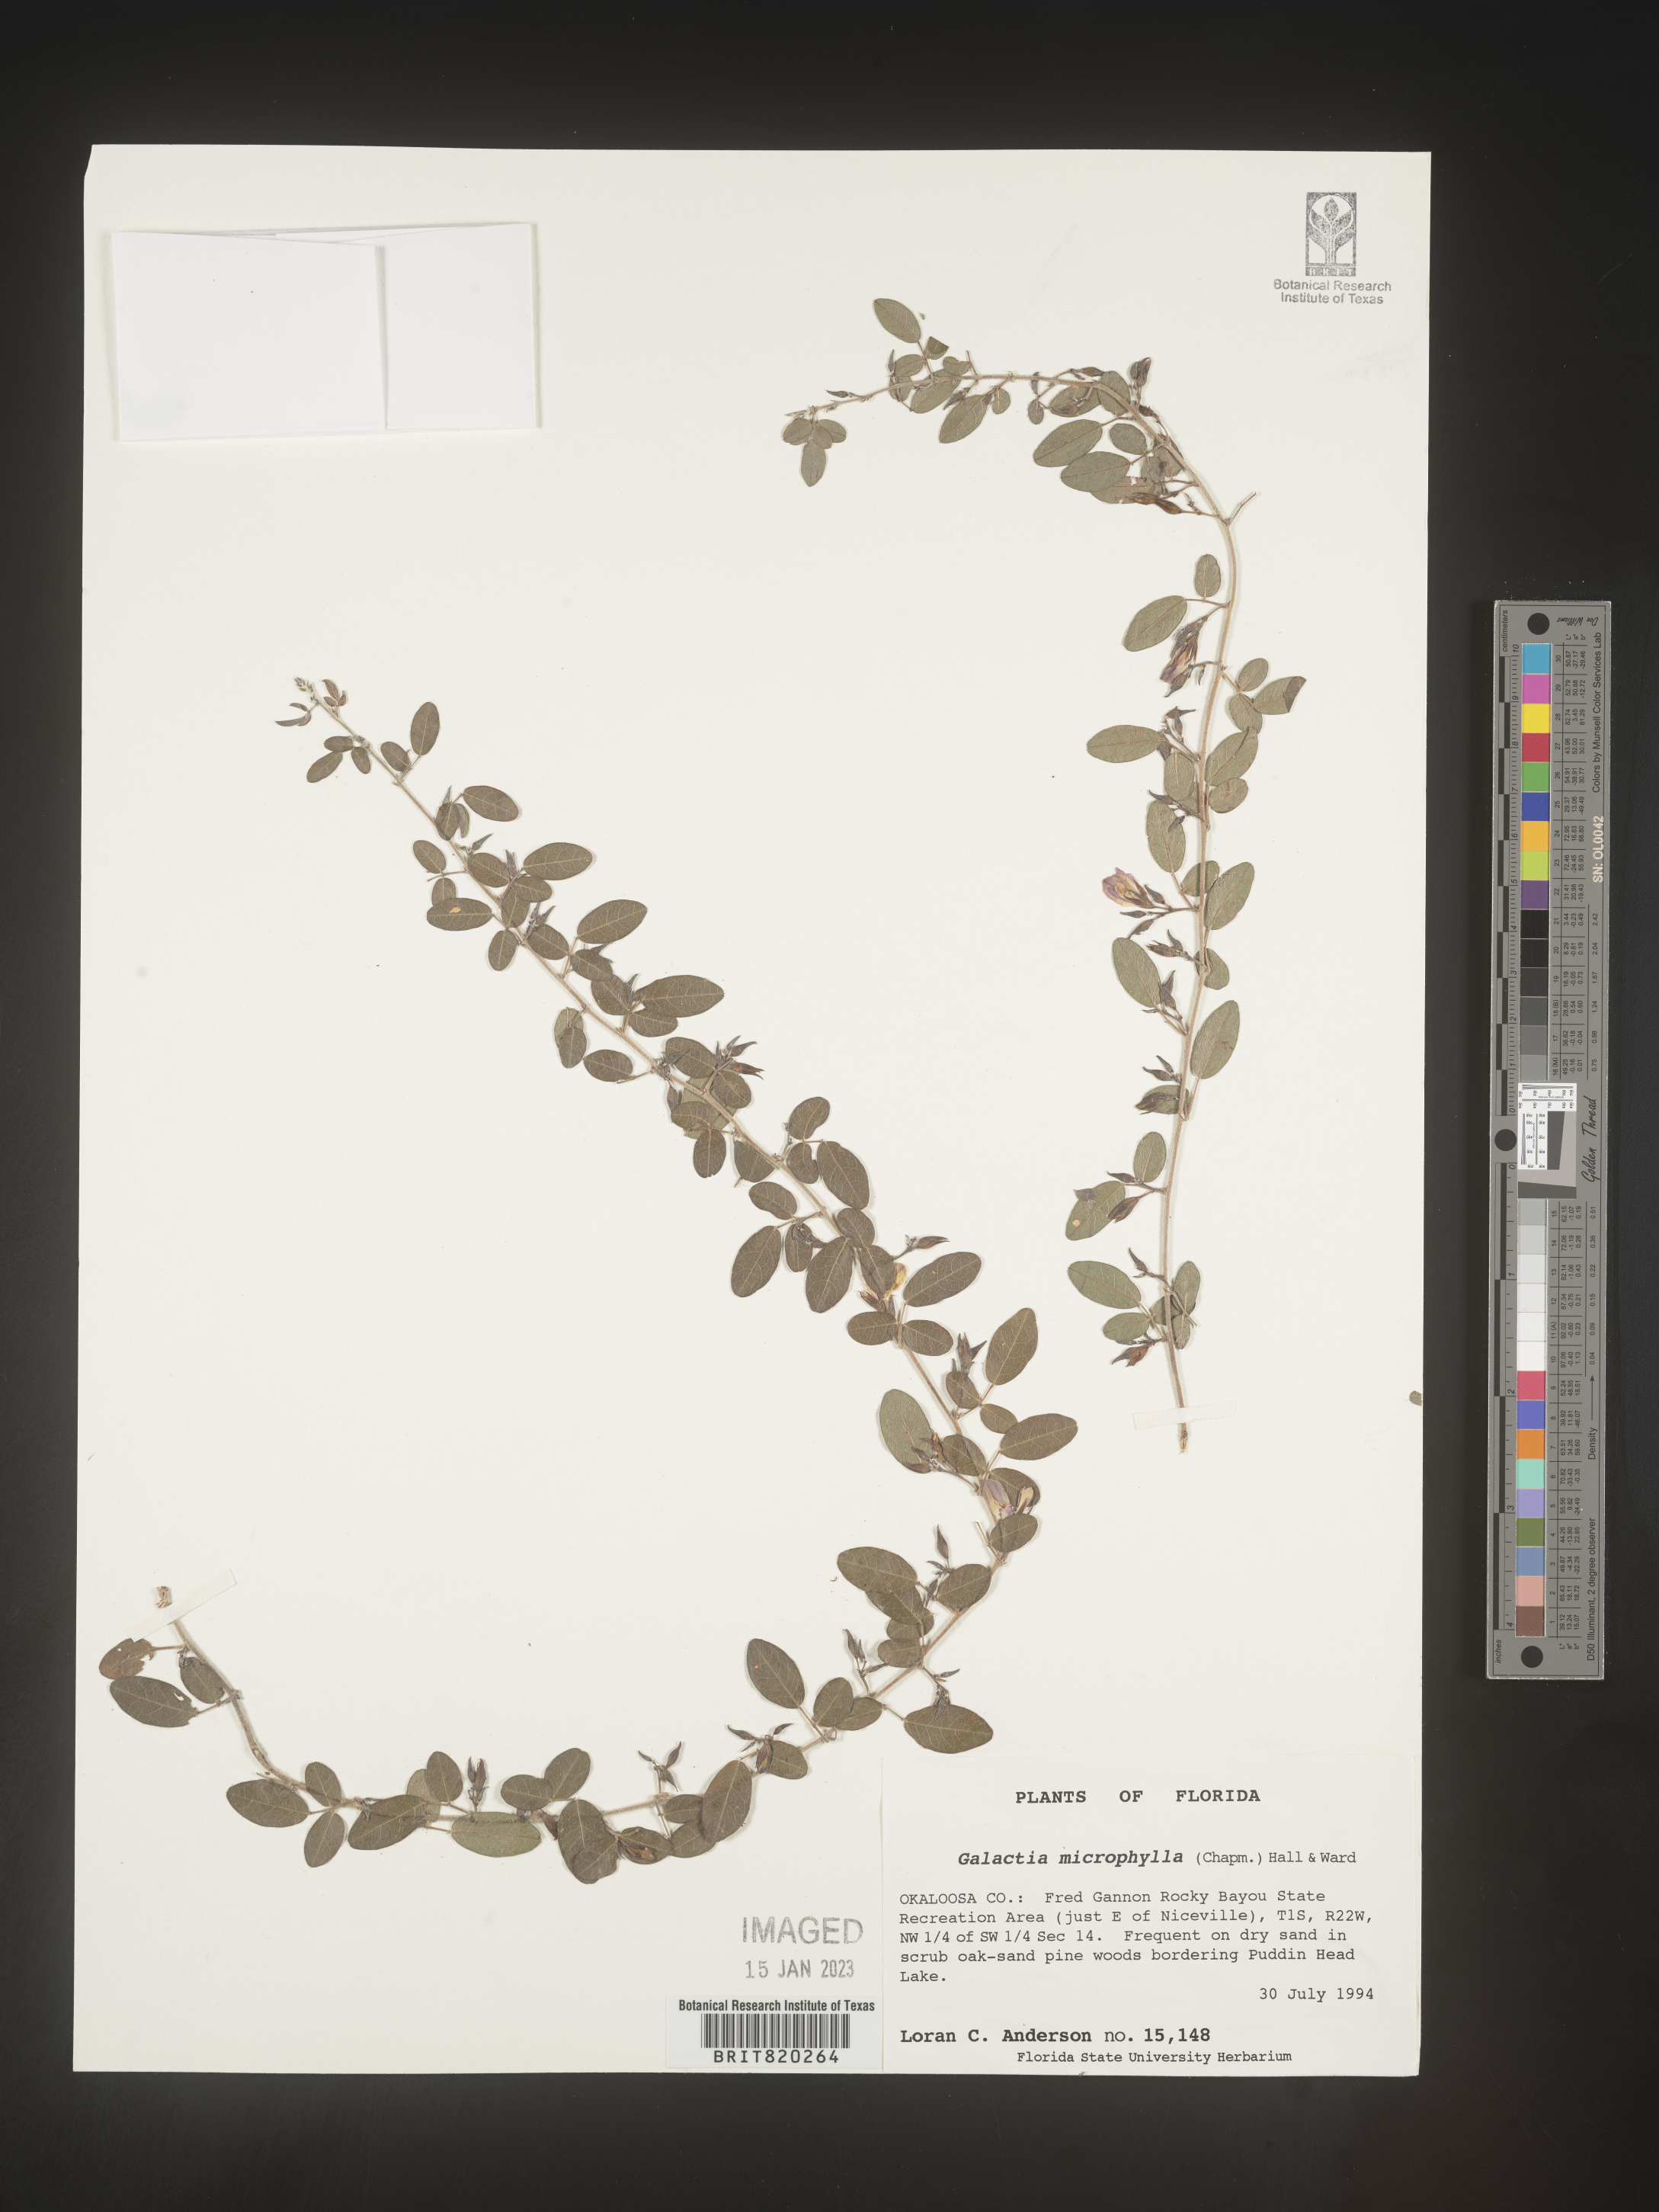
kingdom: Plantae
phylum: Tracheophyta
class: Magnoliopsida
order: Fabales
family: Fabaceae
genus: Galactia
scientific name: Galactia microphylla
